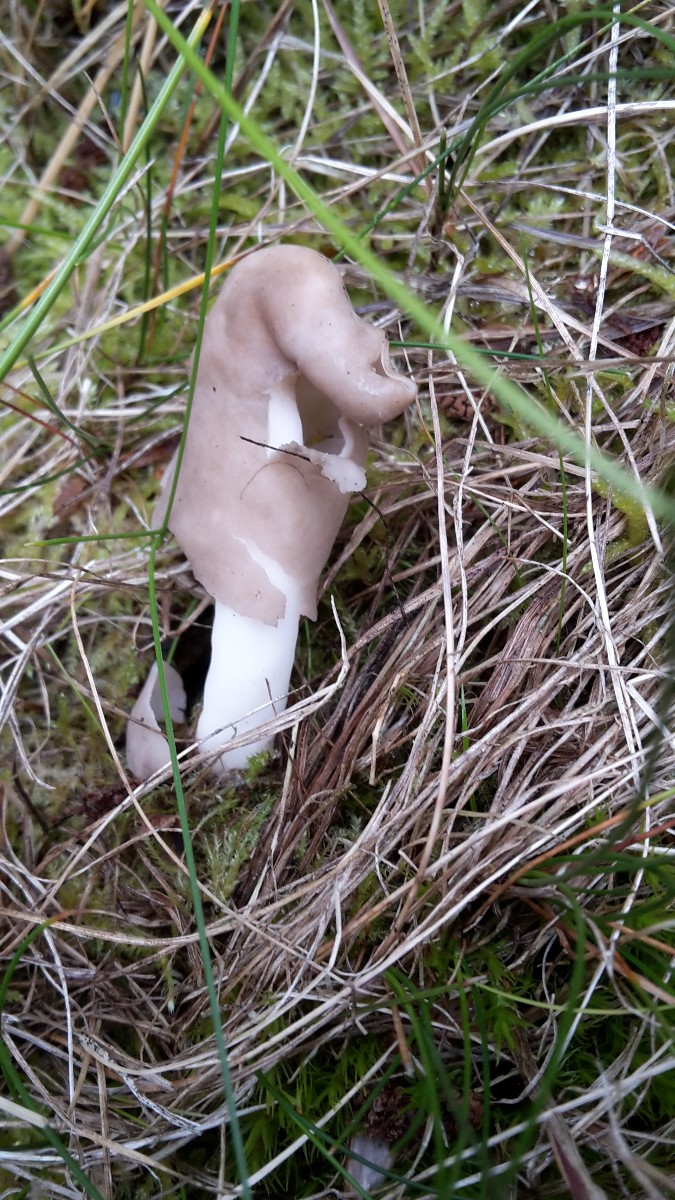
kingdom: Fungi
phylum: Ascomycota
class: Pezizomycetes
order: Pezizales
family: Helvellaceae
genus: Helvella
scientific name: Helvella elastica
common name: elastik-foldhat
